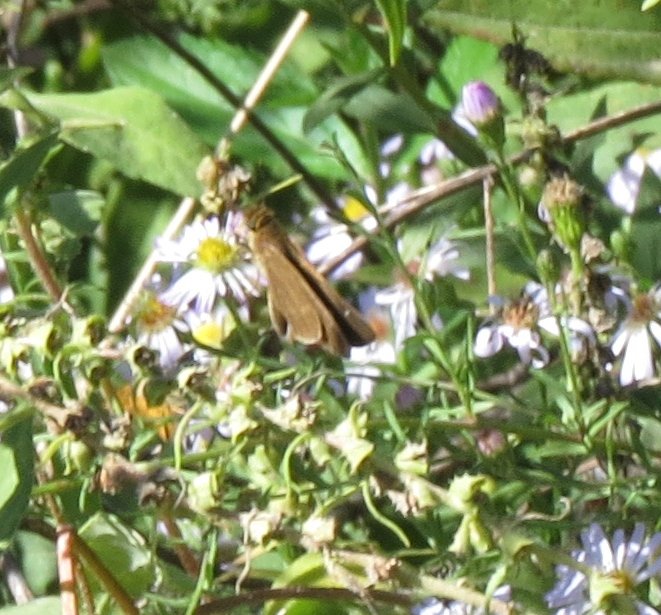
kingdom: Animalia
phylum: Arthropoda
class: Insecta
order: Lepidoptera
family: Hesperiidae
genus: Panoquina
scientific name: Panoquina ocola
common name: Ocola Skipper
